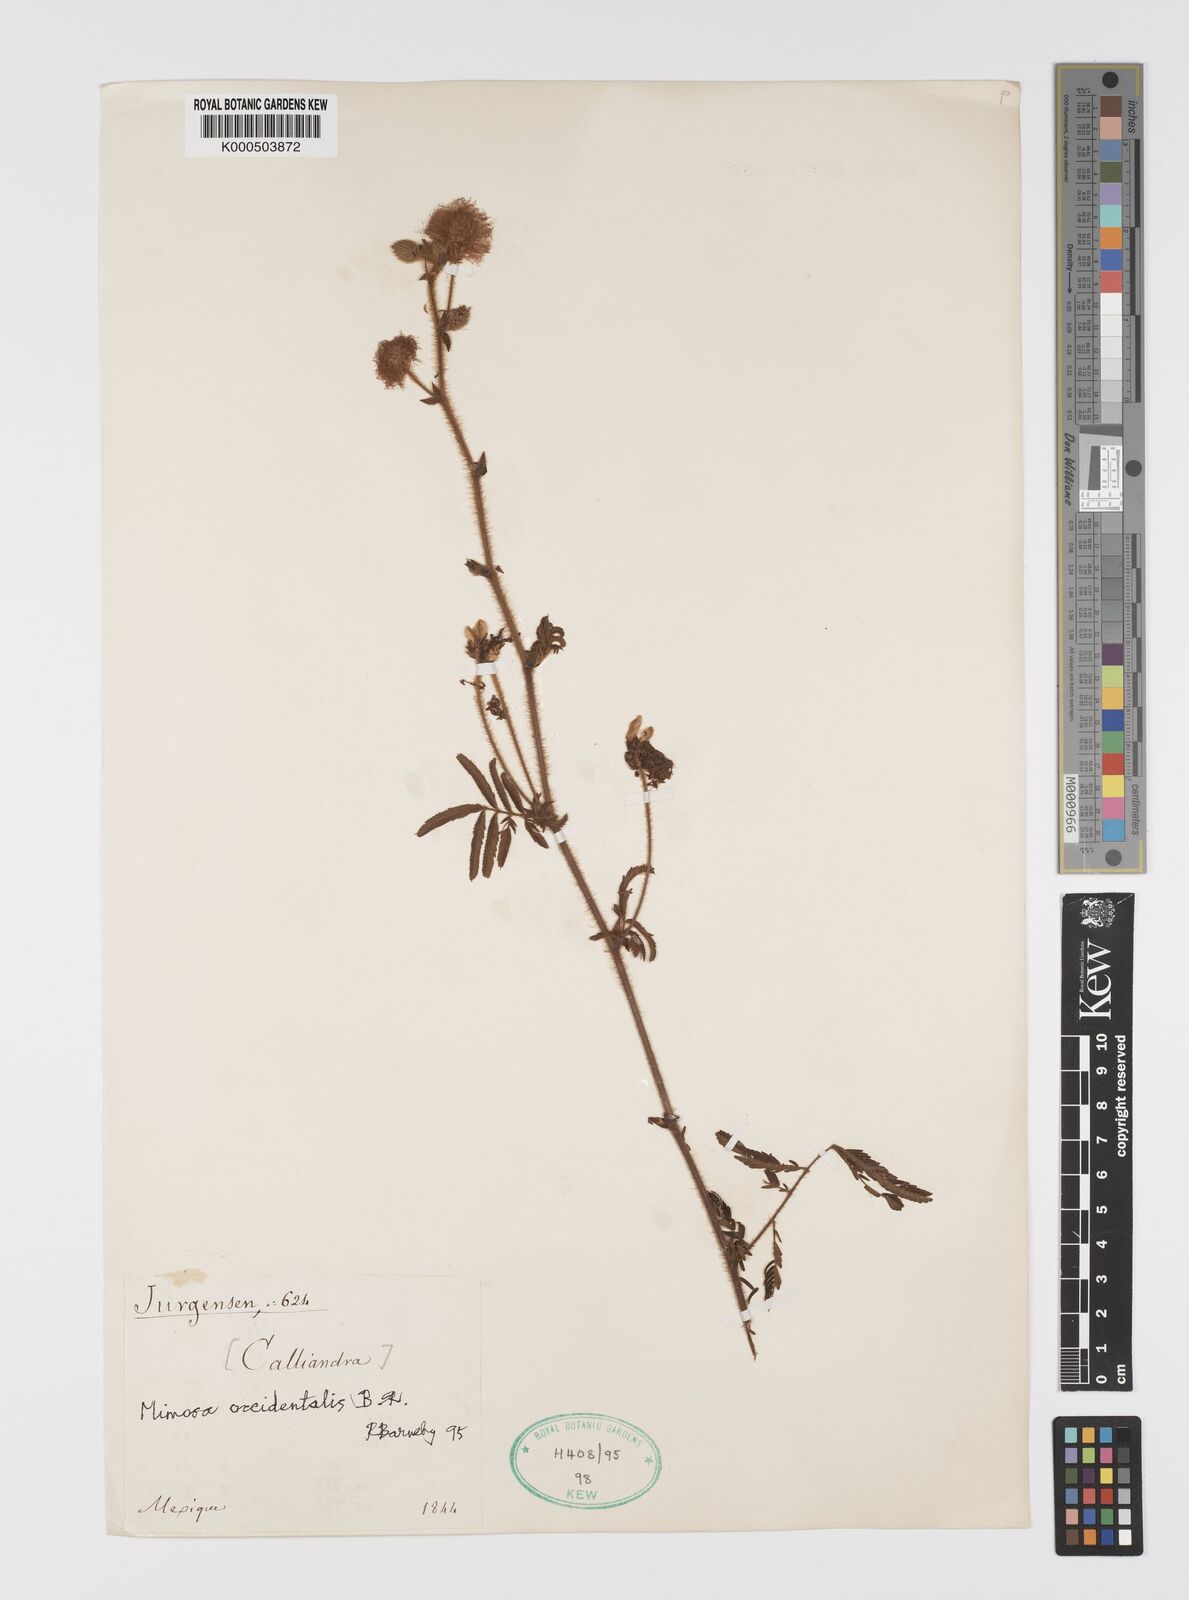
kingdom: Plantae
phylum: Tracheophyta
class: Magnoliopsida
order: Fabales
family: Fabaceae
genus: Mimosa
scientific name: Mimosa occidentalis
